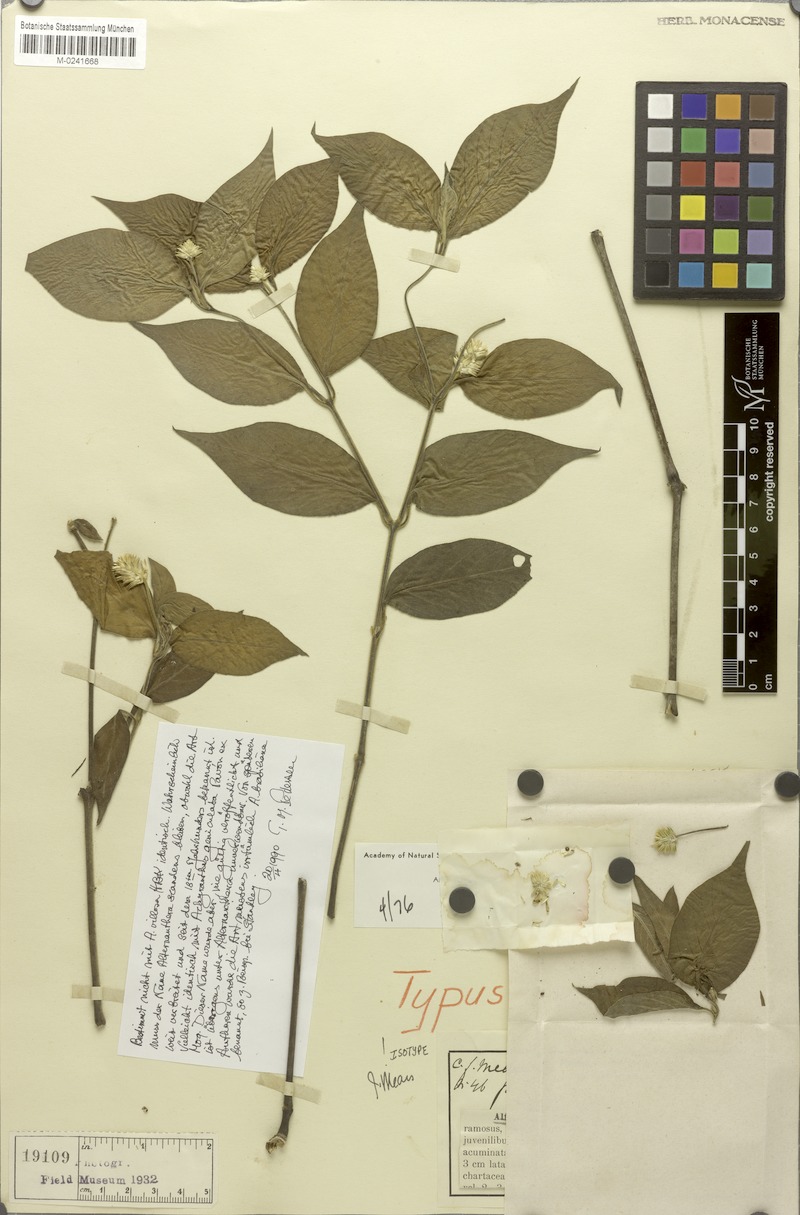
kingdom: Plantae
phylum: Tracheophyta
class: Magnoliopsida
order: Caryophyllales
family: Amaranthaceae
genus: Alternanthera
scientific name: Alternanthera scandens
